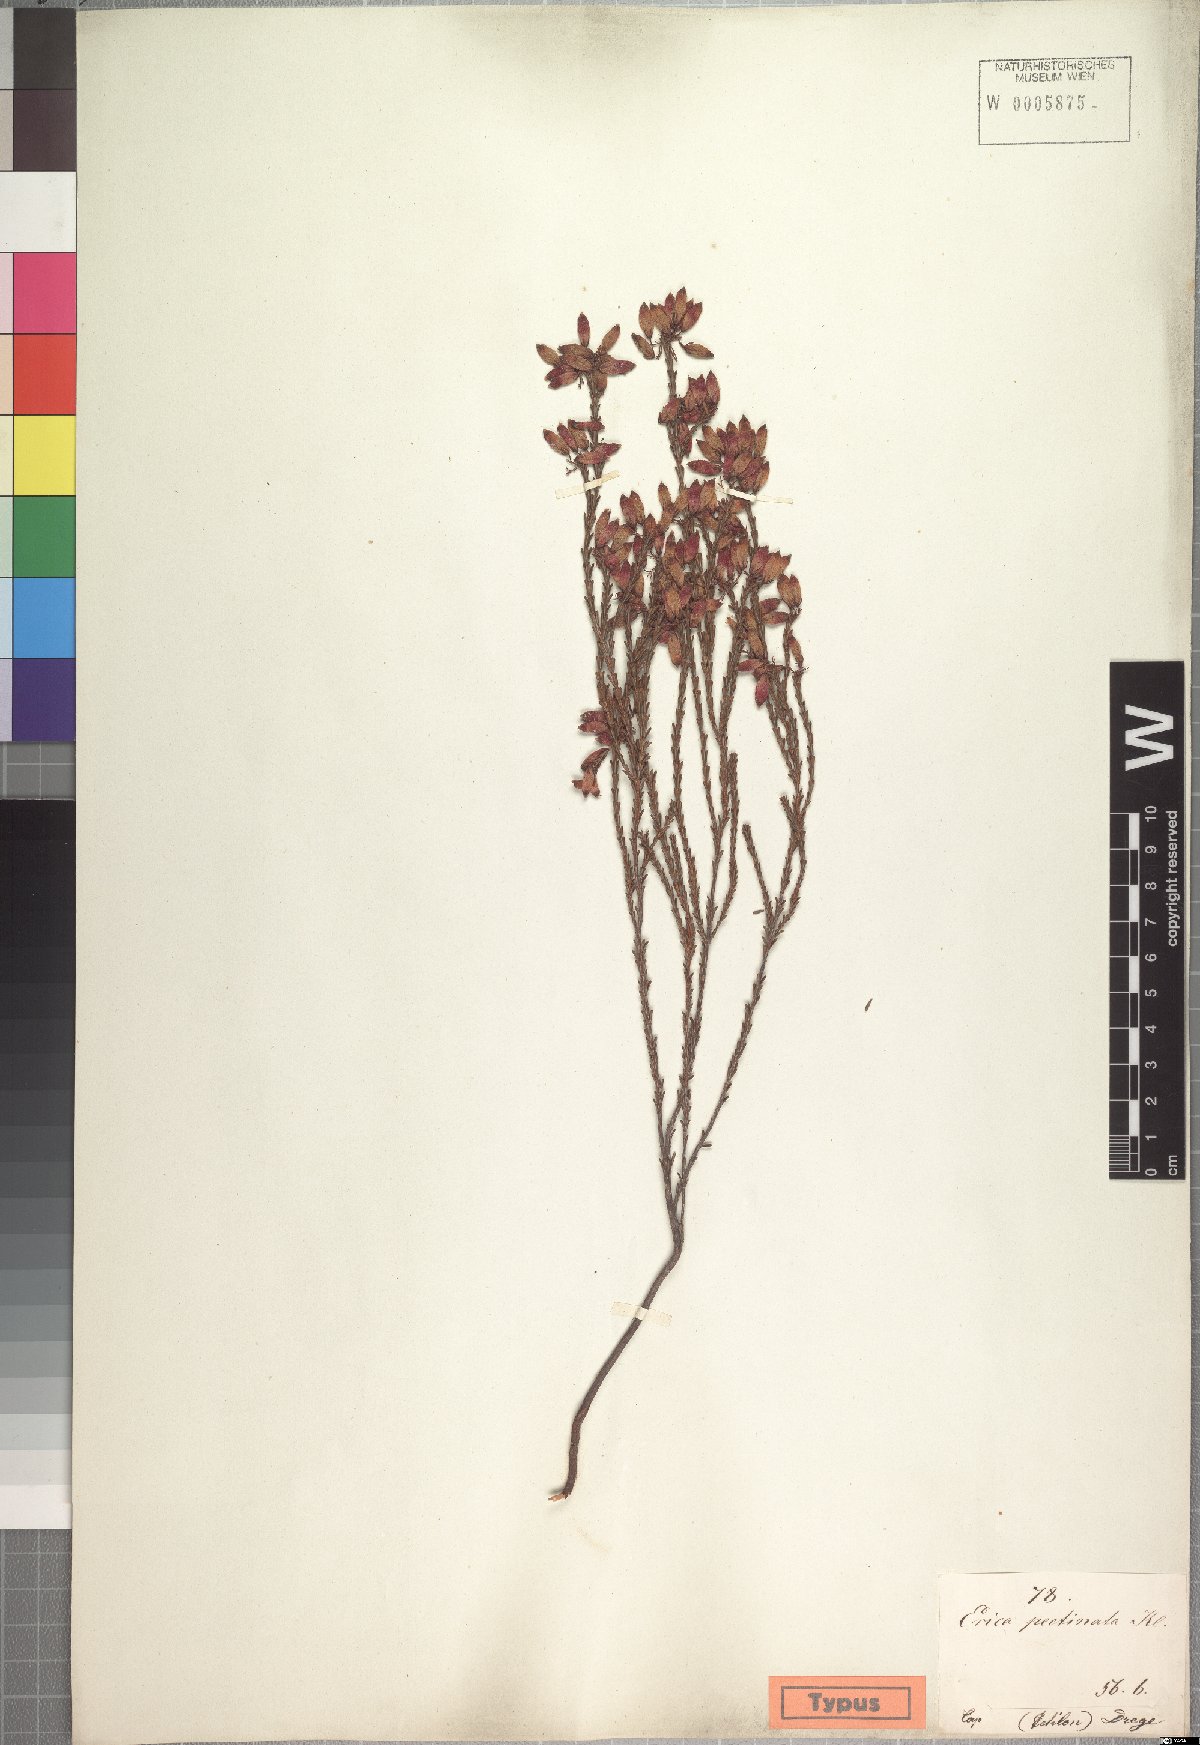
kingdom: Plantae
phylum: Tracheophyta
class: Magnoliopsida
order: Ericales
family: Ericaceae
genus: Erica
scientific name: Erica cristata
